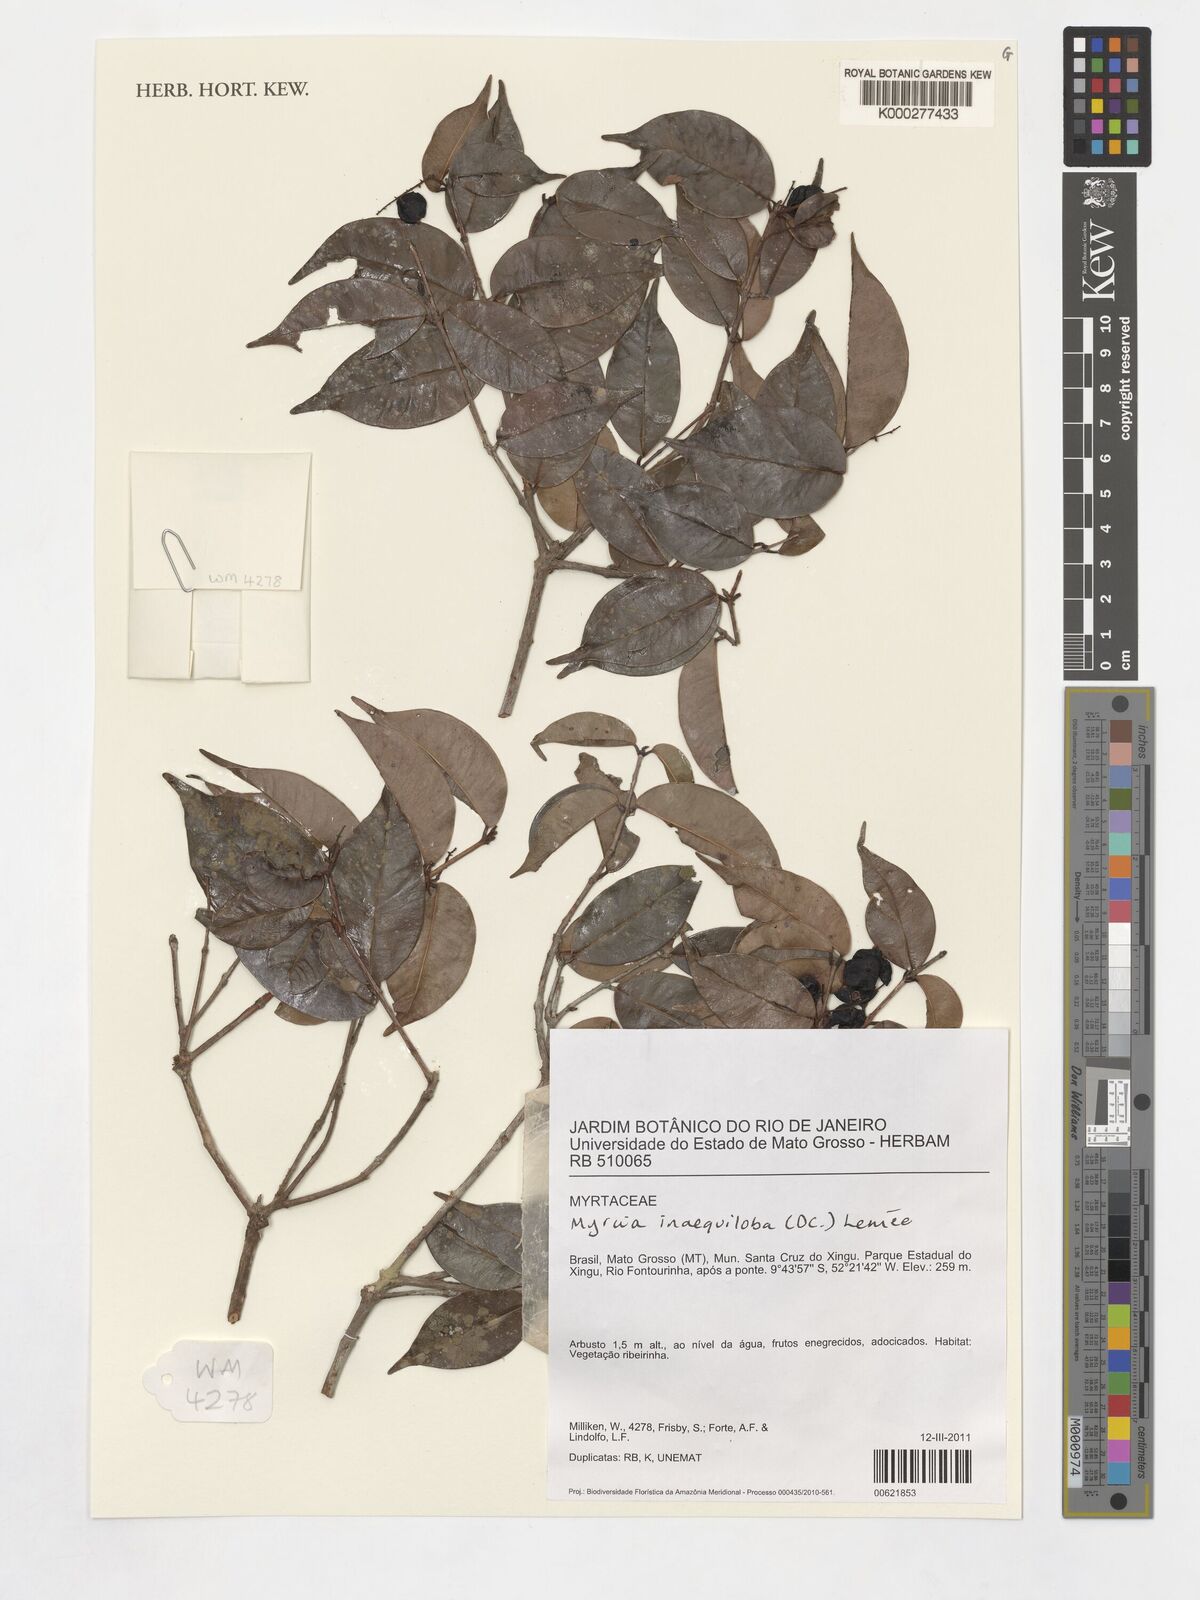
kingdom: Plantae
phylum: Tracheophyta
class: Magnoliopsida
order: Myrtales
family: Myrtaceae
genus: Myrcia
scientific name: Myrcia inaequiloba
